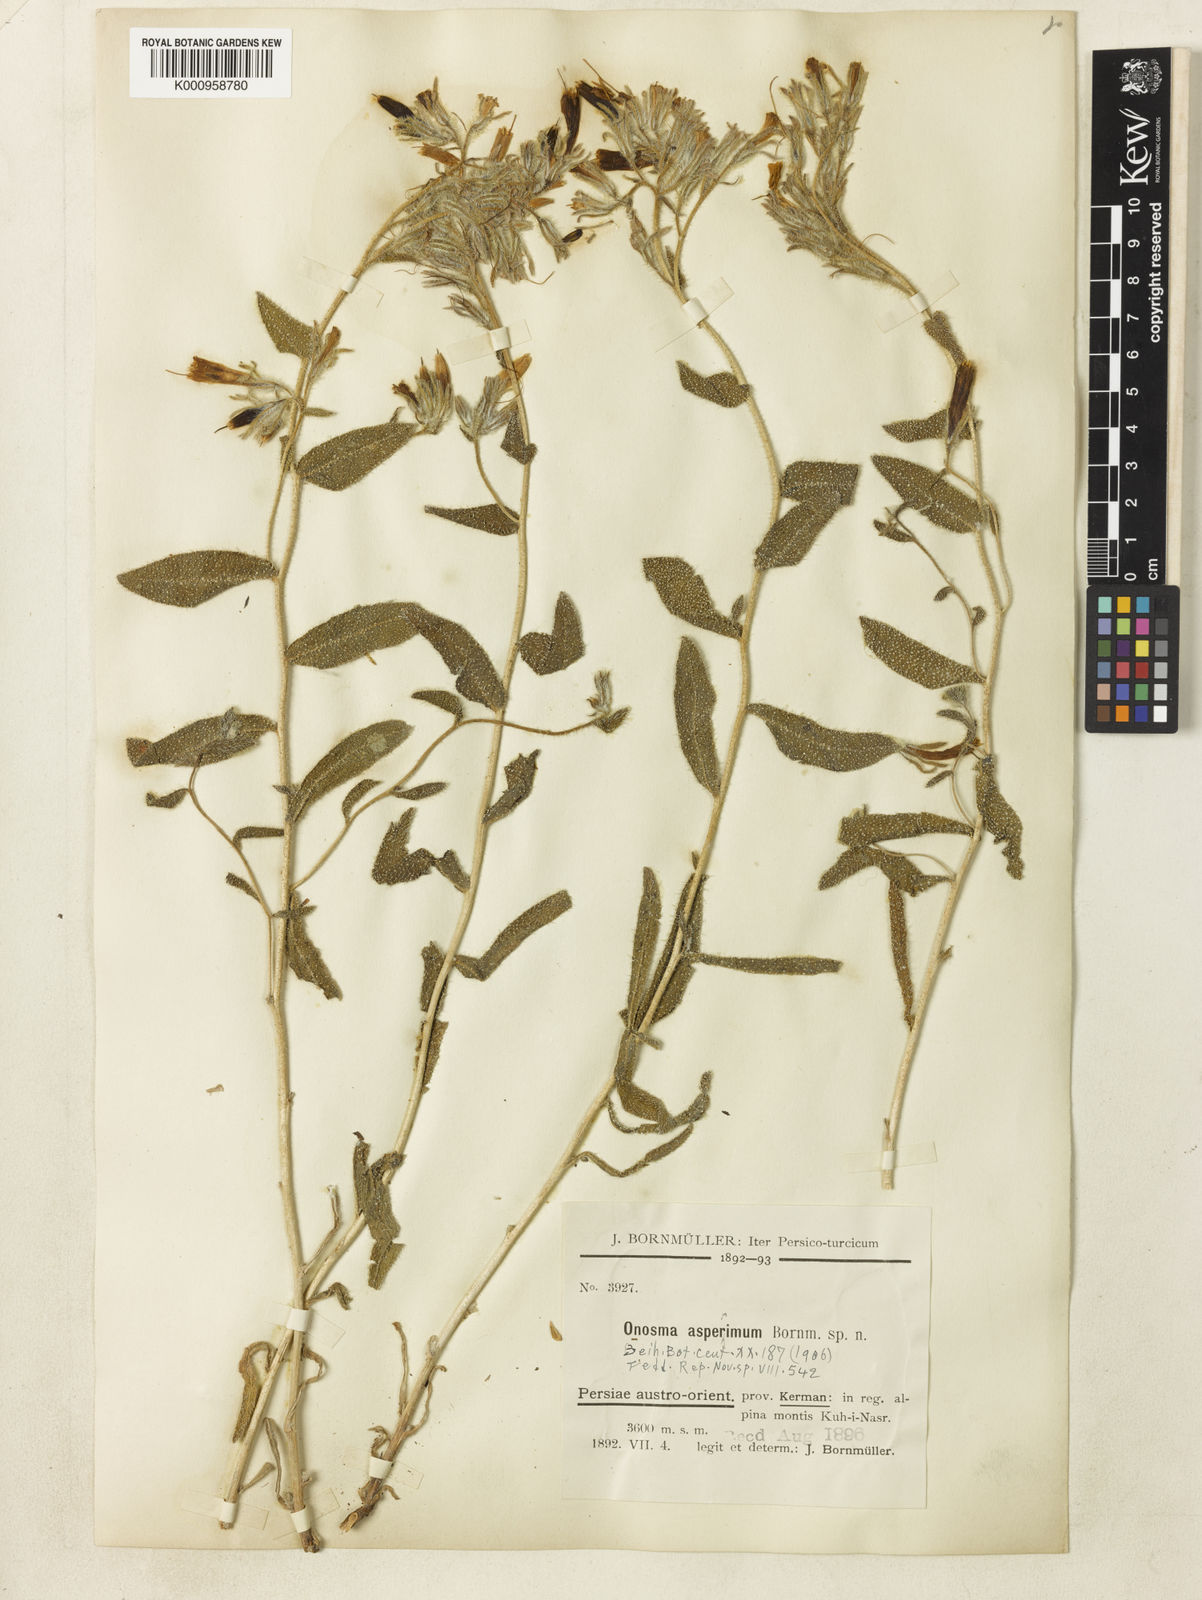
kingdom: Plantae
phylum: Tracheophyta
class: Magnoliopsida
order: Boraginales
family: Boraginaceae
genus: Onosma
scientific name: Onosma asperrima
